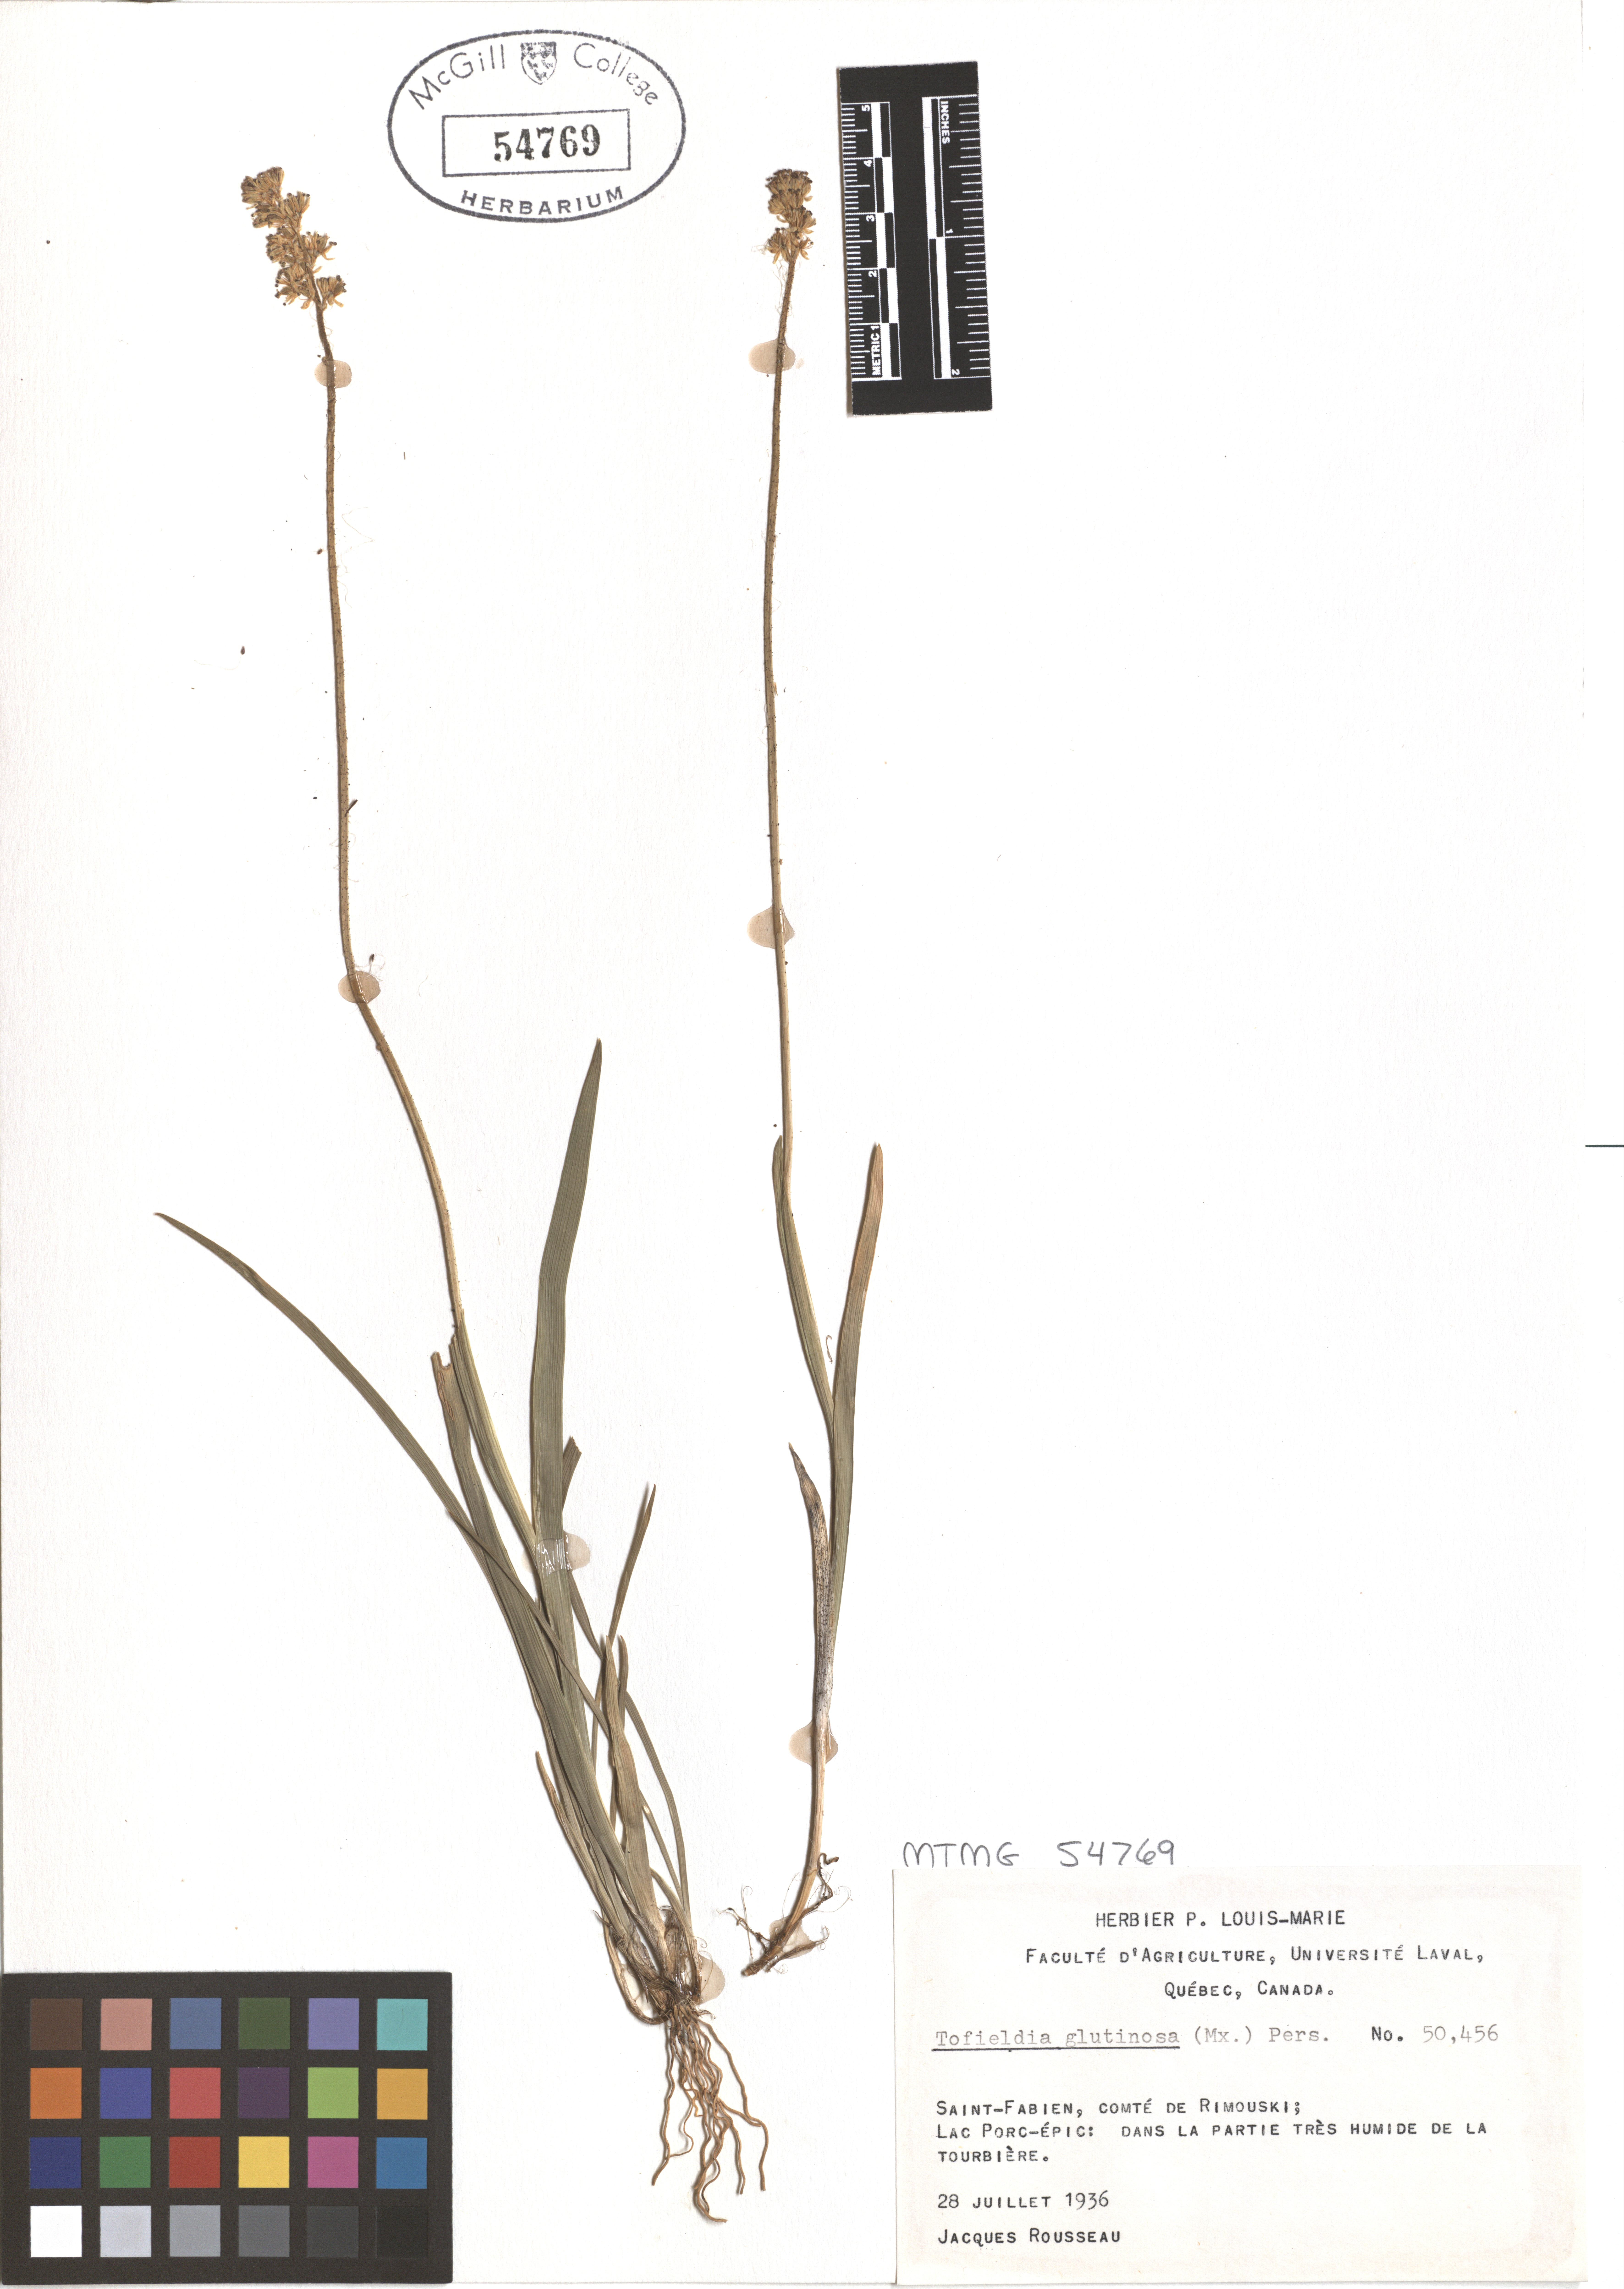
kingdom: Plantae
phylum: Tracheophyta
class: Liliopsida
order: Alismatales
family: Tofieldiaceae
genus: Triantha
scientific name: Triantha glutinosa
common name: Glutinous tofieldia
